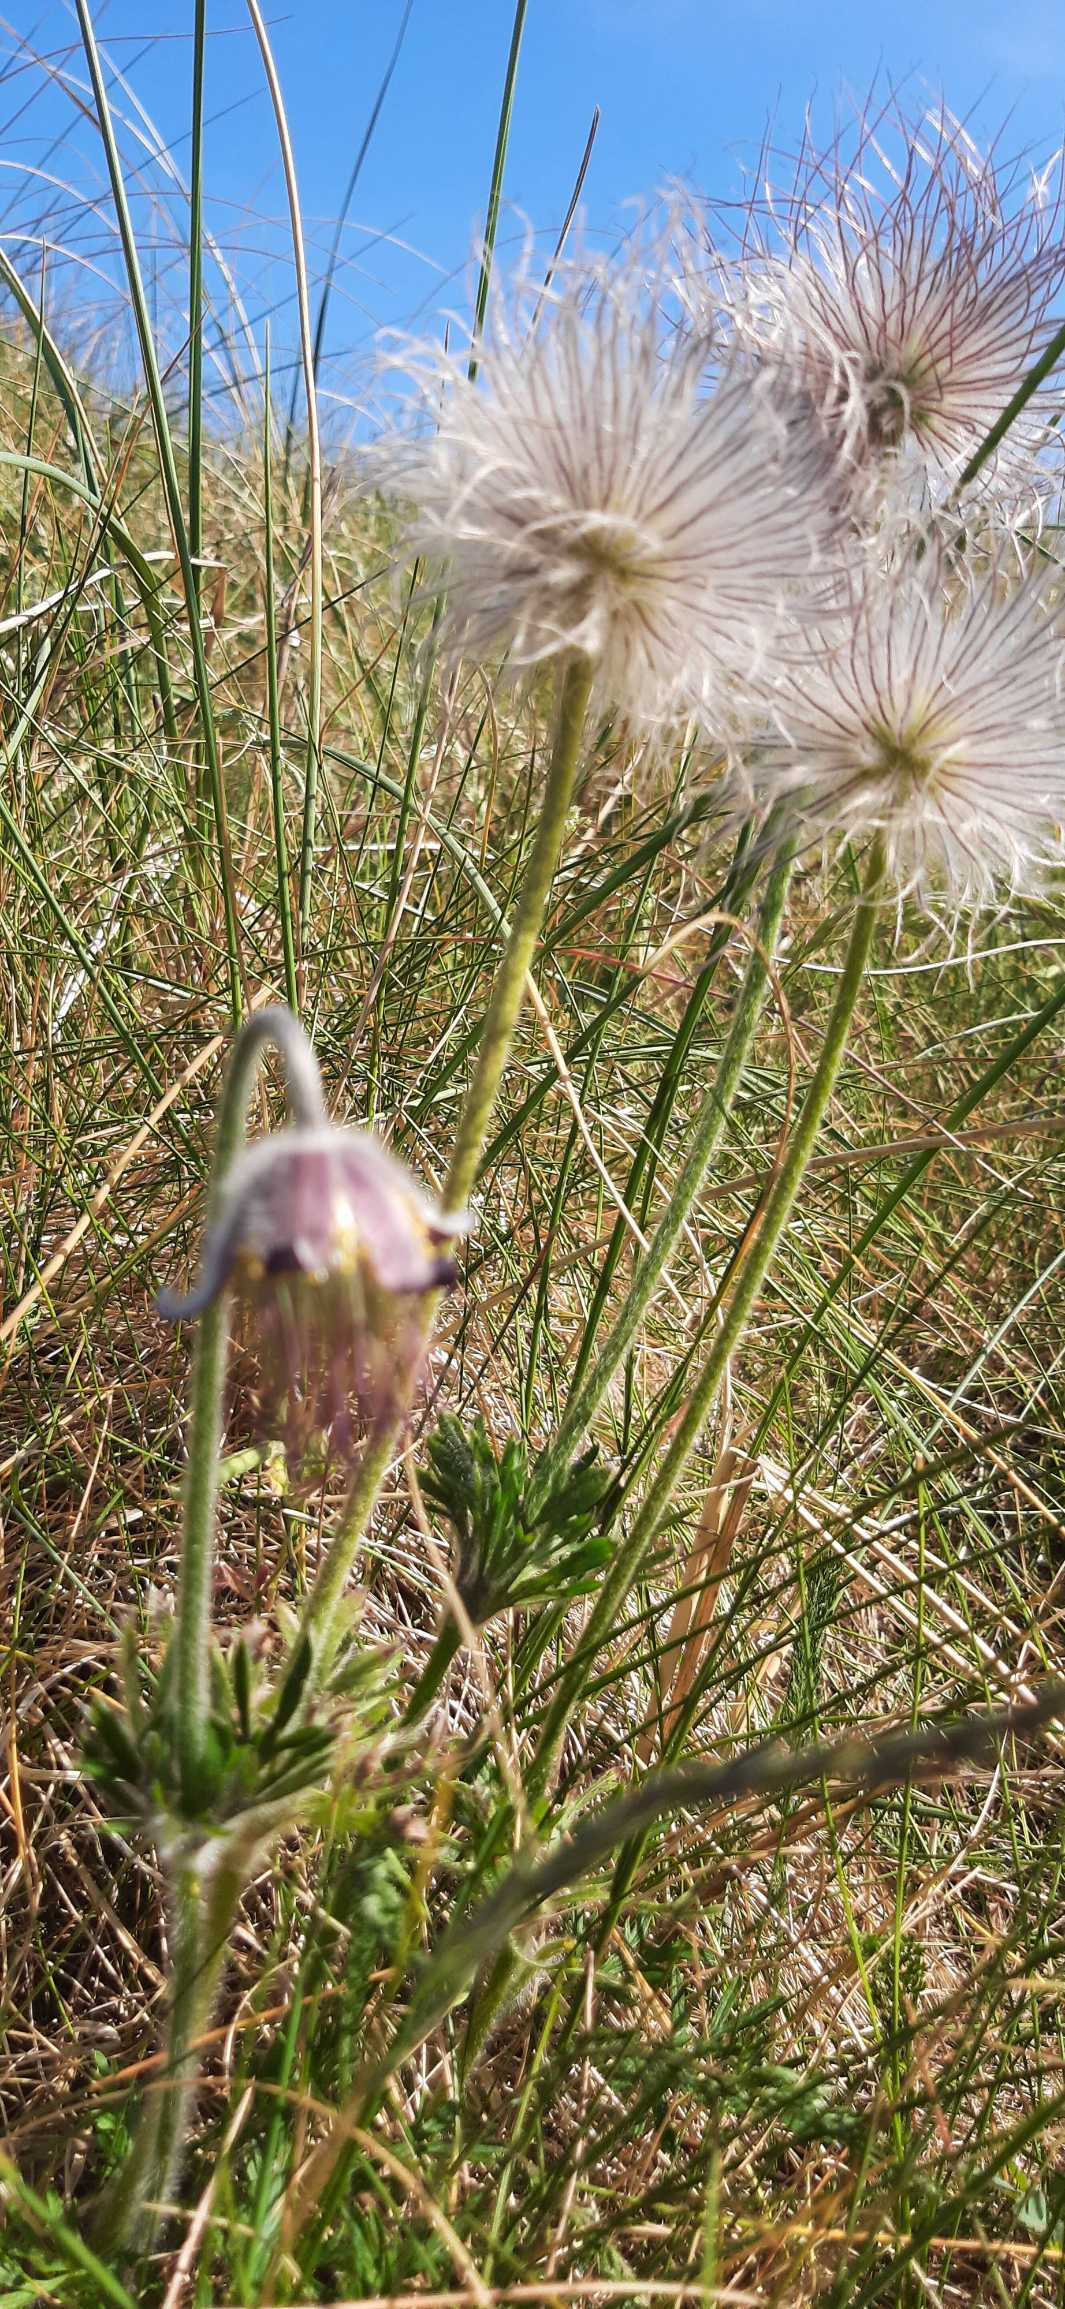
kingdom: Plantae
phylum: Tracheophyta
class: Magnoliopsida
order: Ranunculales
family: Ranunculaceae
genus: Pulsatilla
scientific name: Pulsatilla pratensis
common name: Nikkende kobjælde
